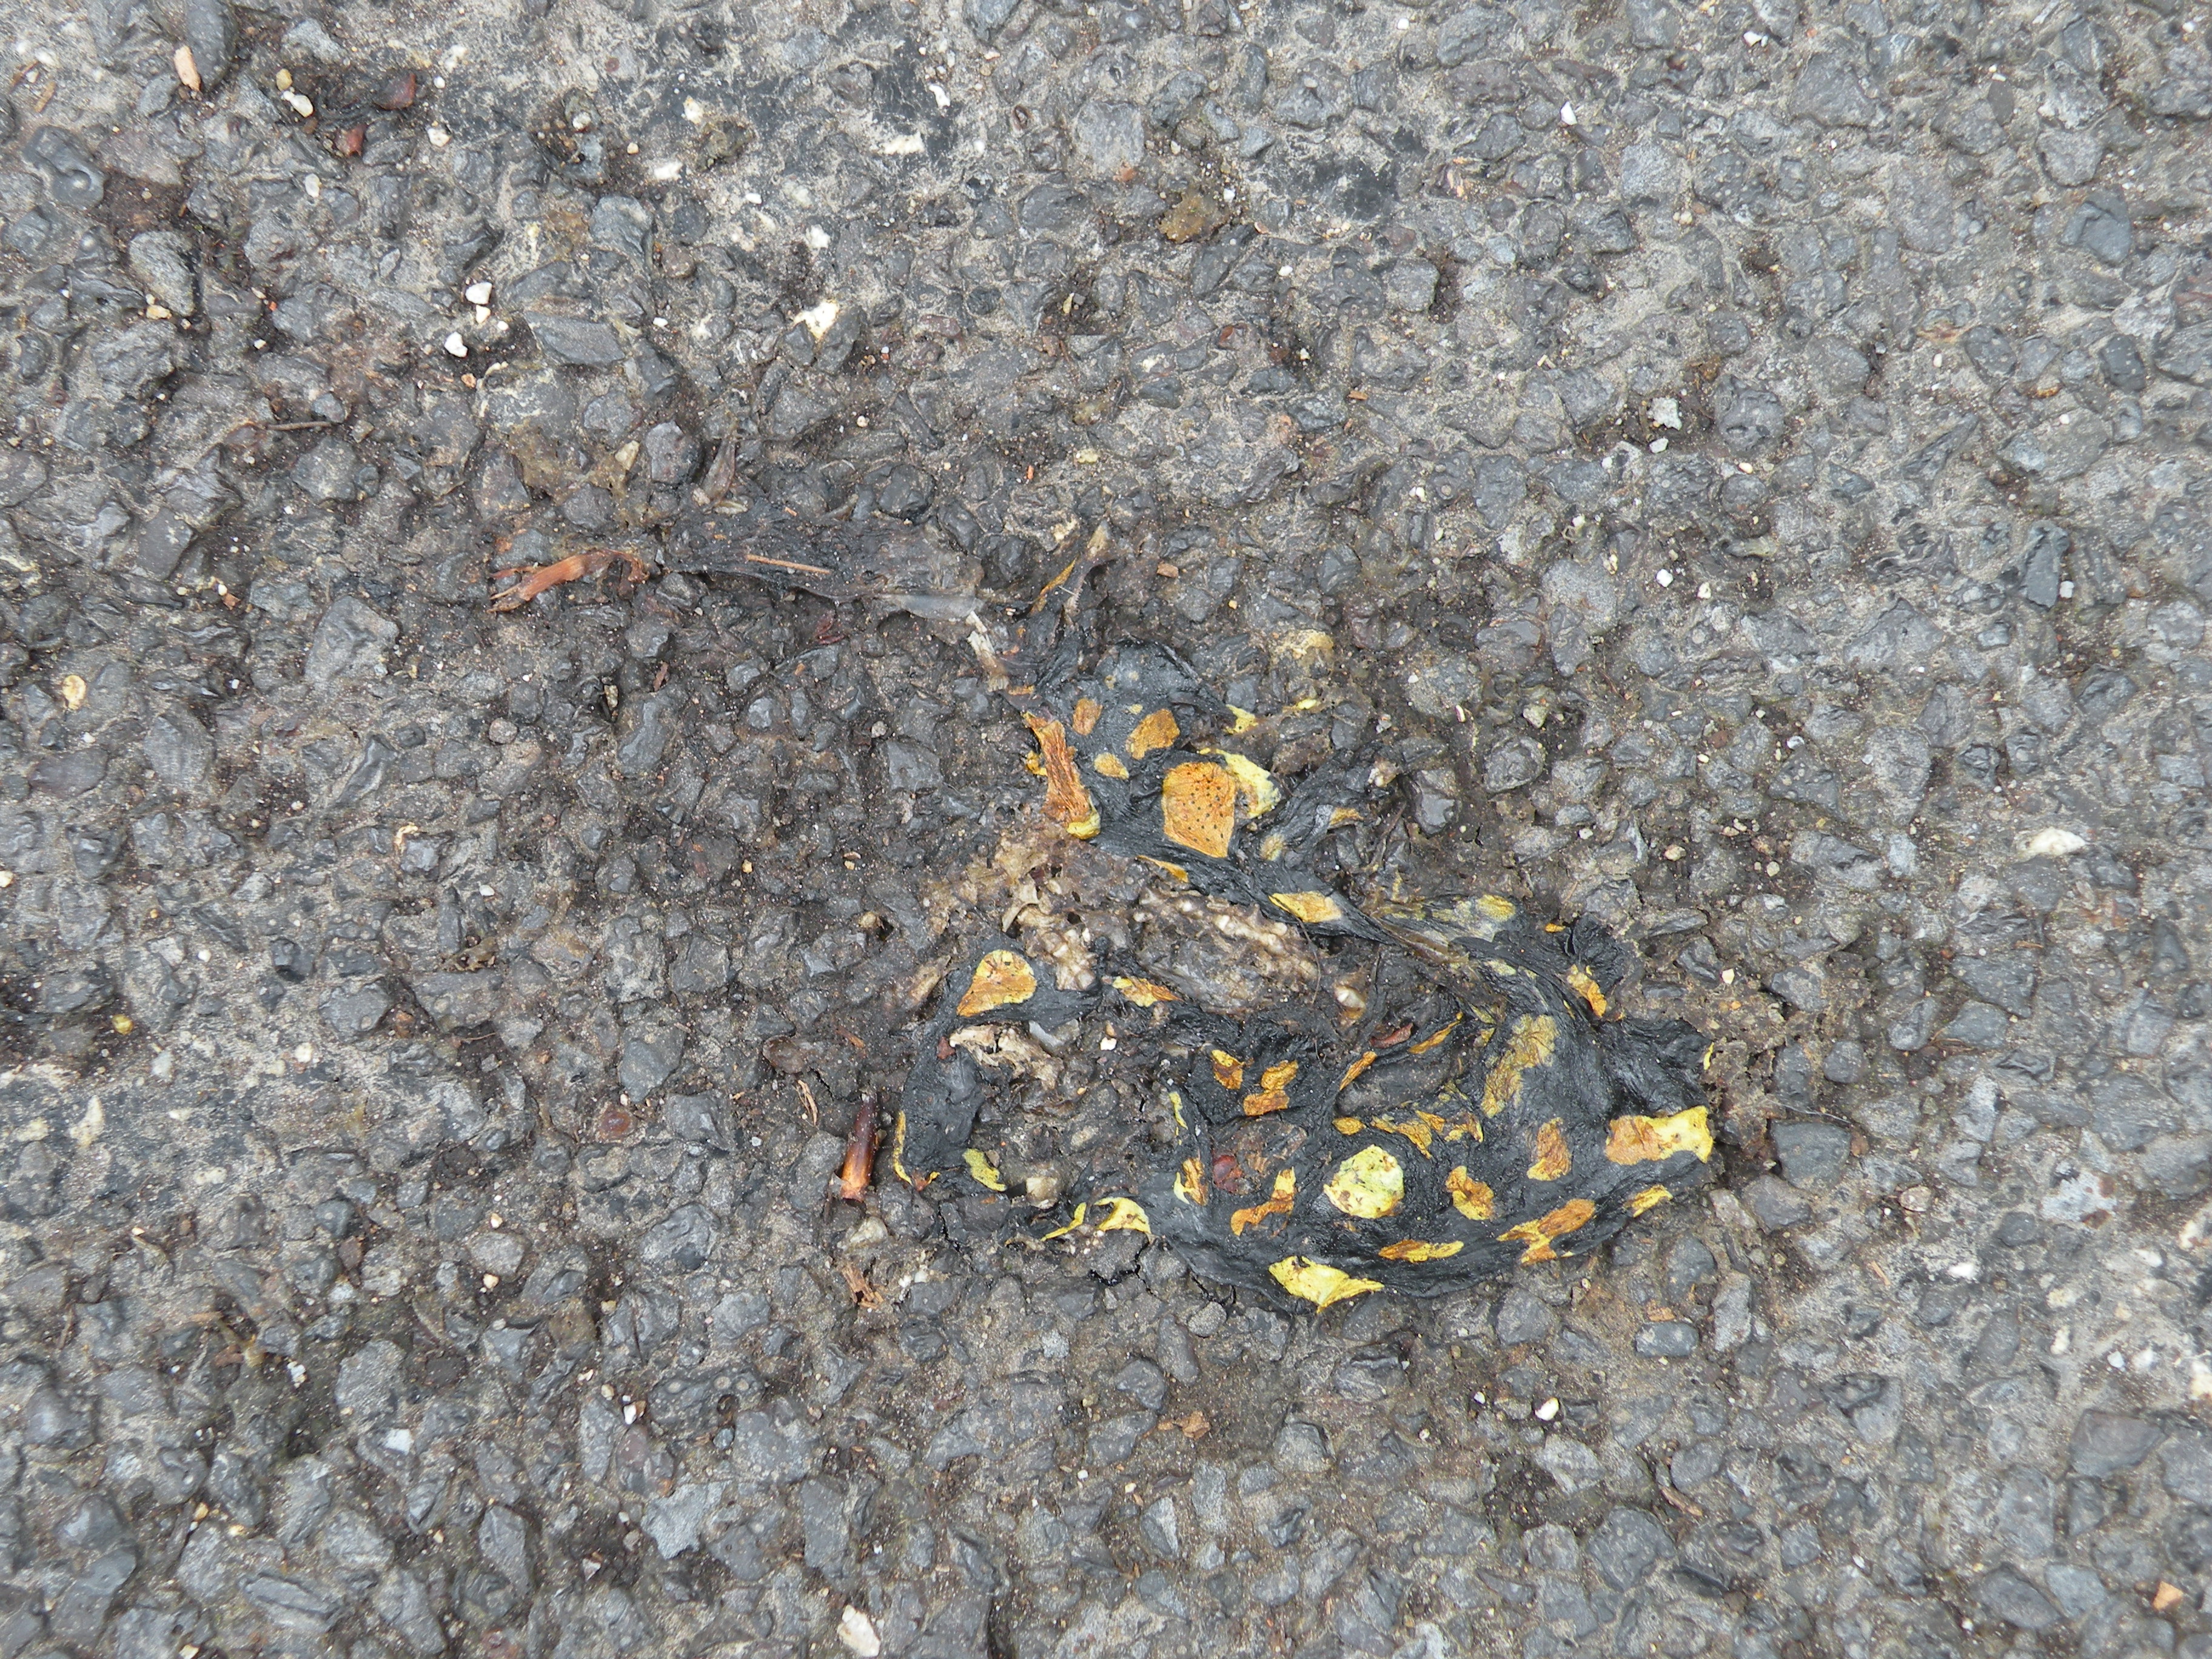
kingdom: Animalia
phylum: Chordata
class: Amphibia
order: Caudata
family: Salamandridae
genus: Salamandra
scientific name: Salamandra salamandra
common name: Fire salamander
